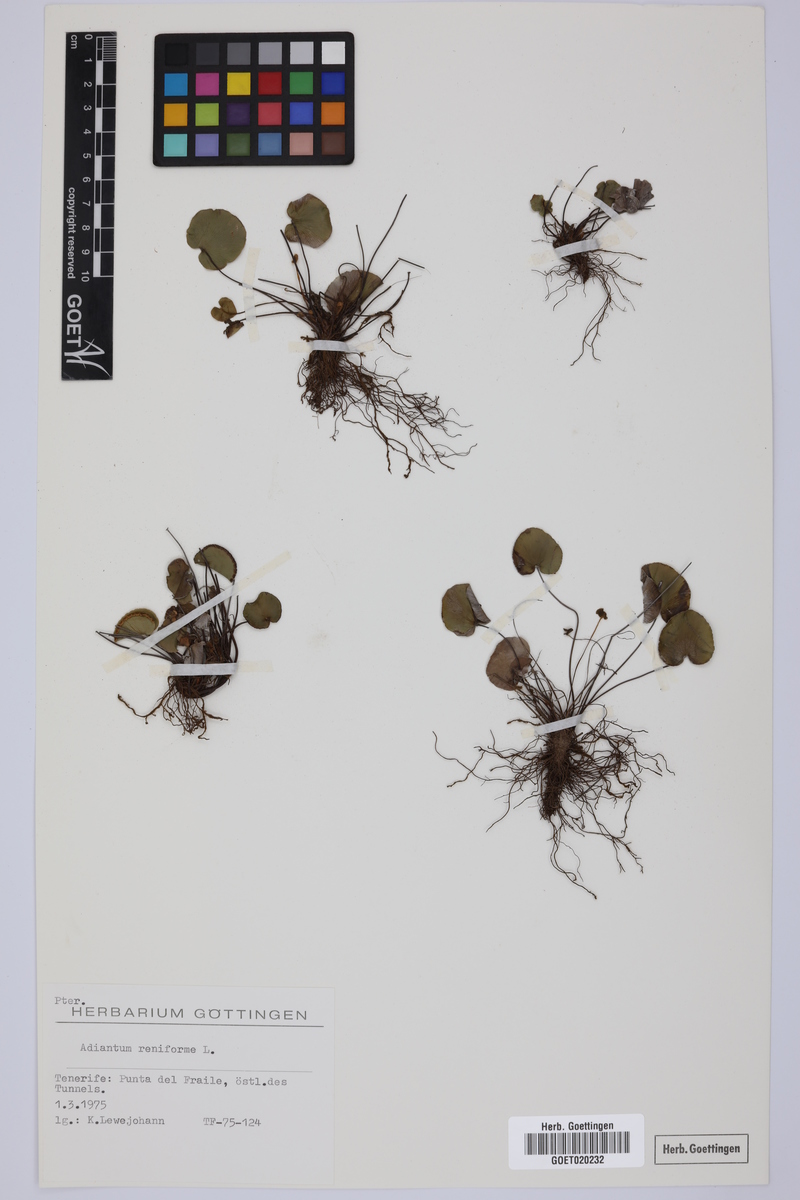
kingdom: Plantae
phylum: Tracheophyta
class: Polypodiopsida
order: Polypodiales
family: Pteridaceae
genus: Adiantum
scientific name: Adiantum reniforme
